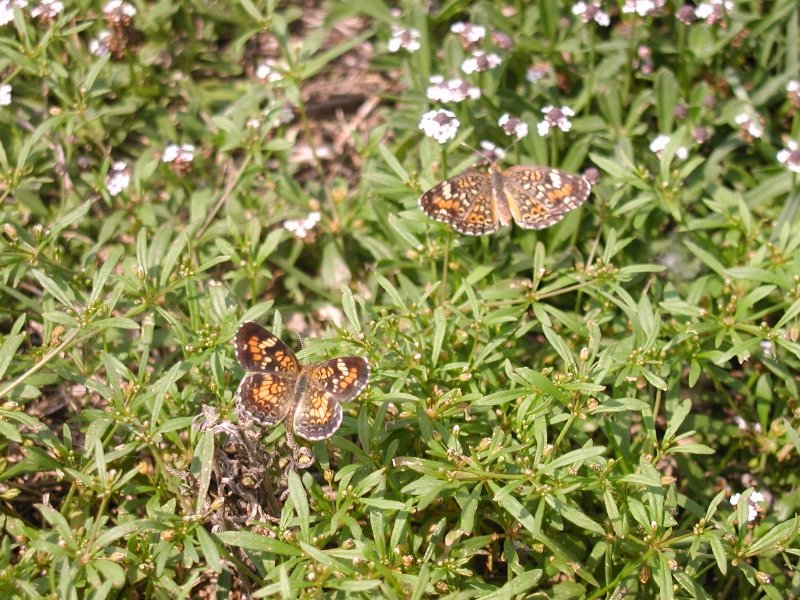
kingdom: Animalia
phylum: Arthropoda
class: Insecta
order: Lepidoptera
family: Nymphalidae
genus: Phyciodes
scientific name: Phyciodes phaon
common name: Phaon Crescent
